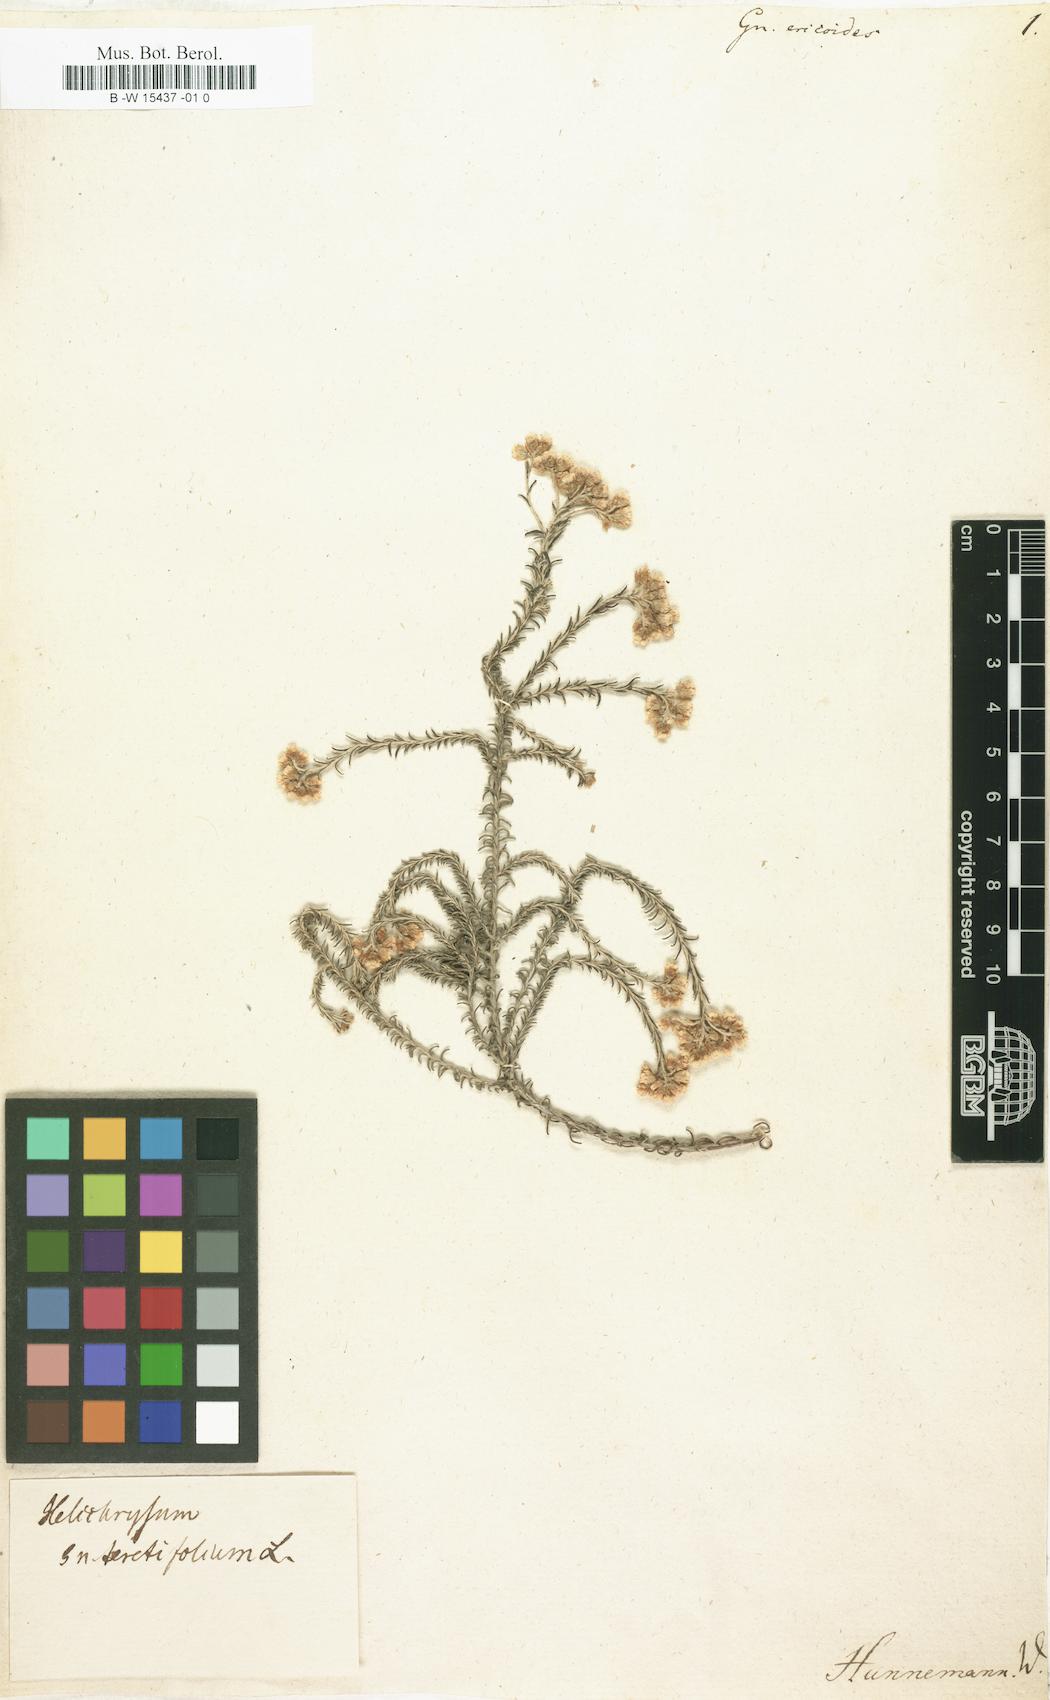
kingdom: Plantae
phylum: Tracheophyta
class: Magnoliopsida
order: Asterales
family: Asteraceae
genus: Helichrysum
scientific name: Helichrysum
